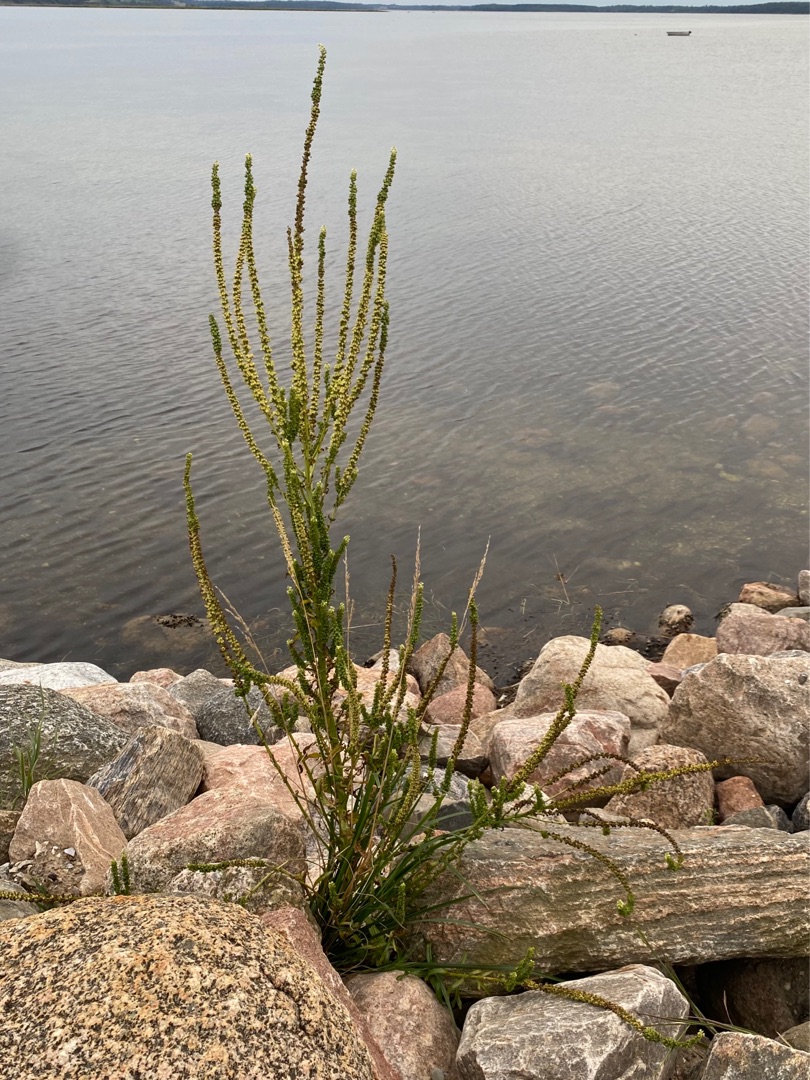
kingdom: Plantae
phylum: Tracheophyta
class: Magnoliopsida
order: Brassicales
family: Resedaceae
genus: Reseda
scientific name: Reseda luteola
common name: Farve-reseda
